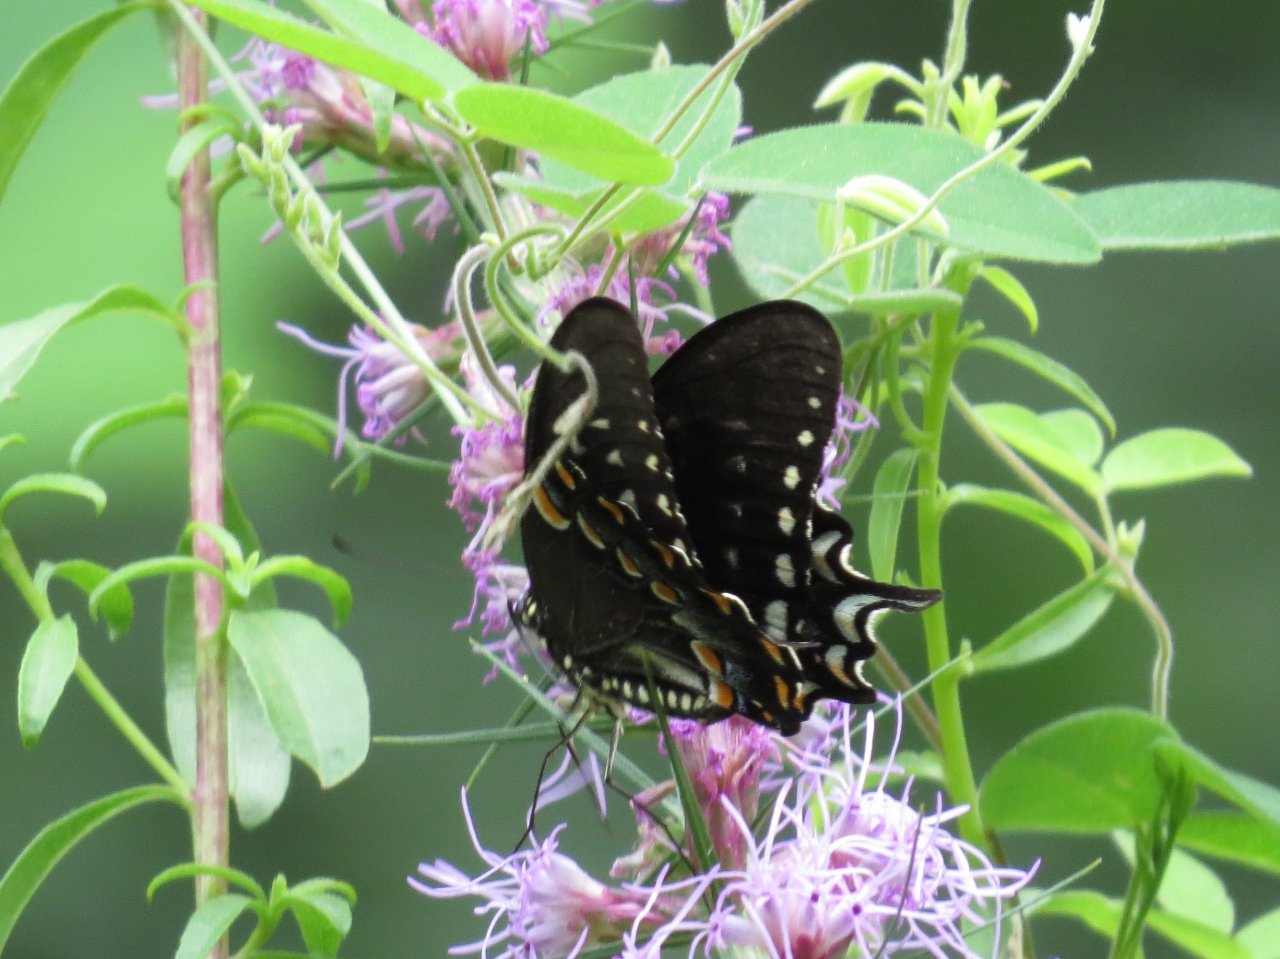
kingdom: Animalia
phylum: Arthropoda
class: Insecta
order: Lepidoptera
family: Papilionidae
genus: Pterourus
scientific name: Pterourus troilus
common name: Spicebush Swallowtail
